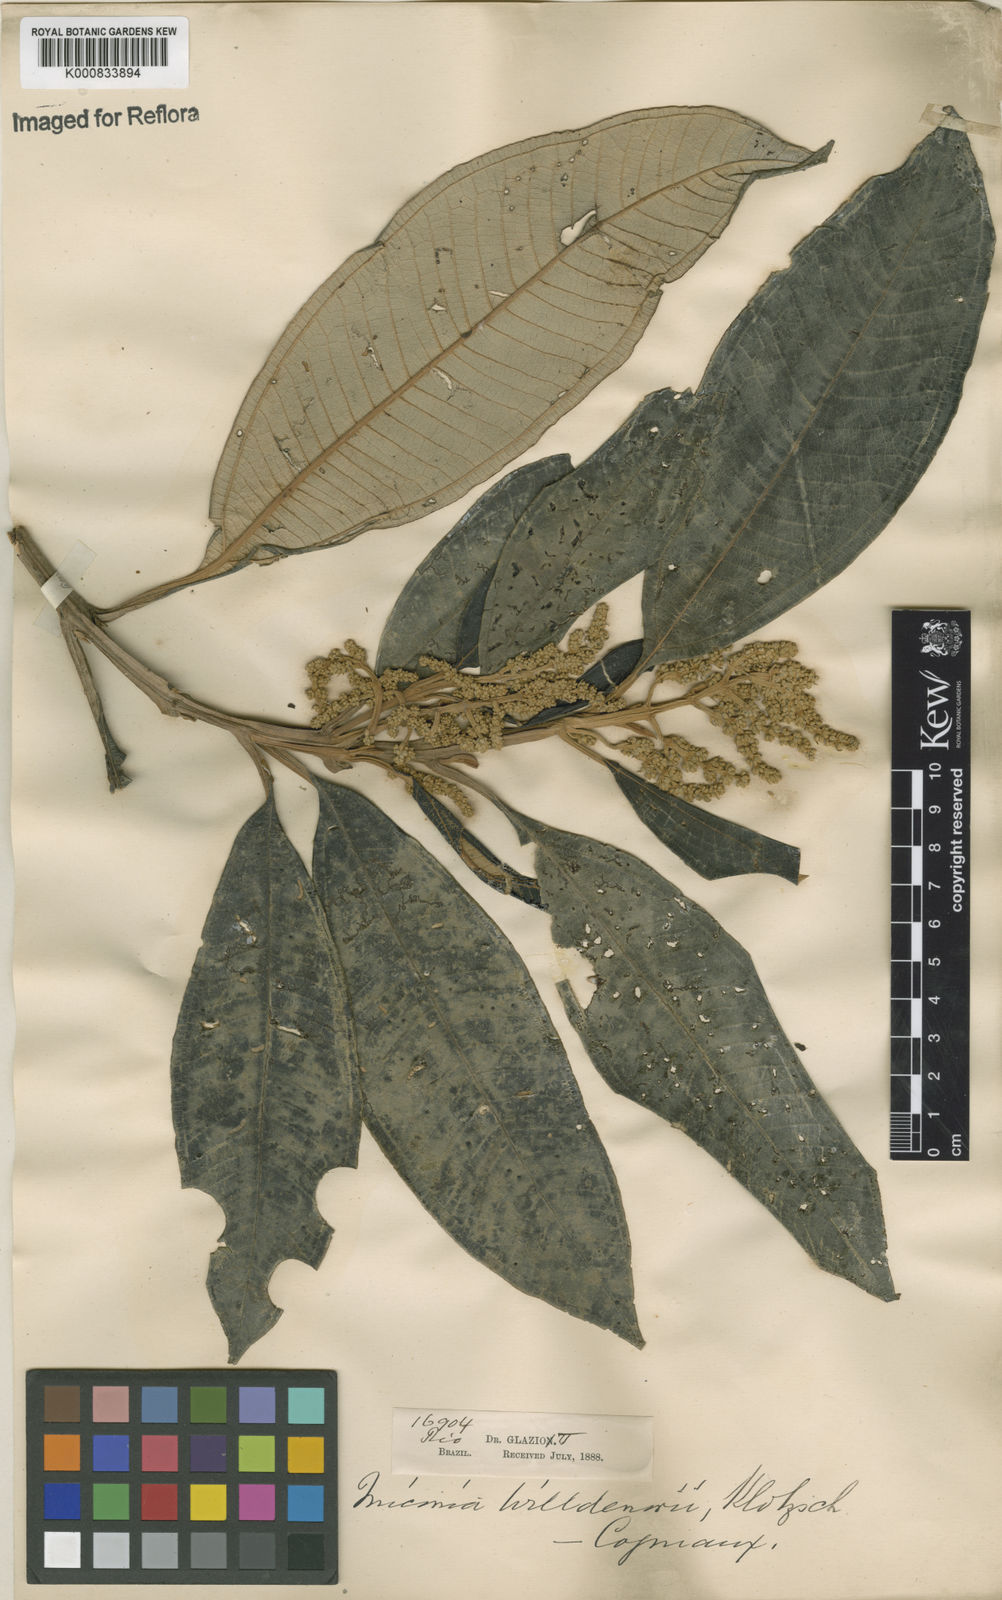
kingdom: Plantae
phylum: Tracheophyta
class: Magnoliopsida
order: Myrtales
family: Melastomataceae
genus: Miconia
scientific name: Miconia willdenowii
